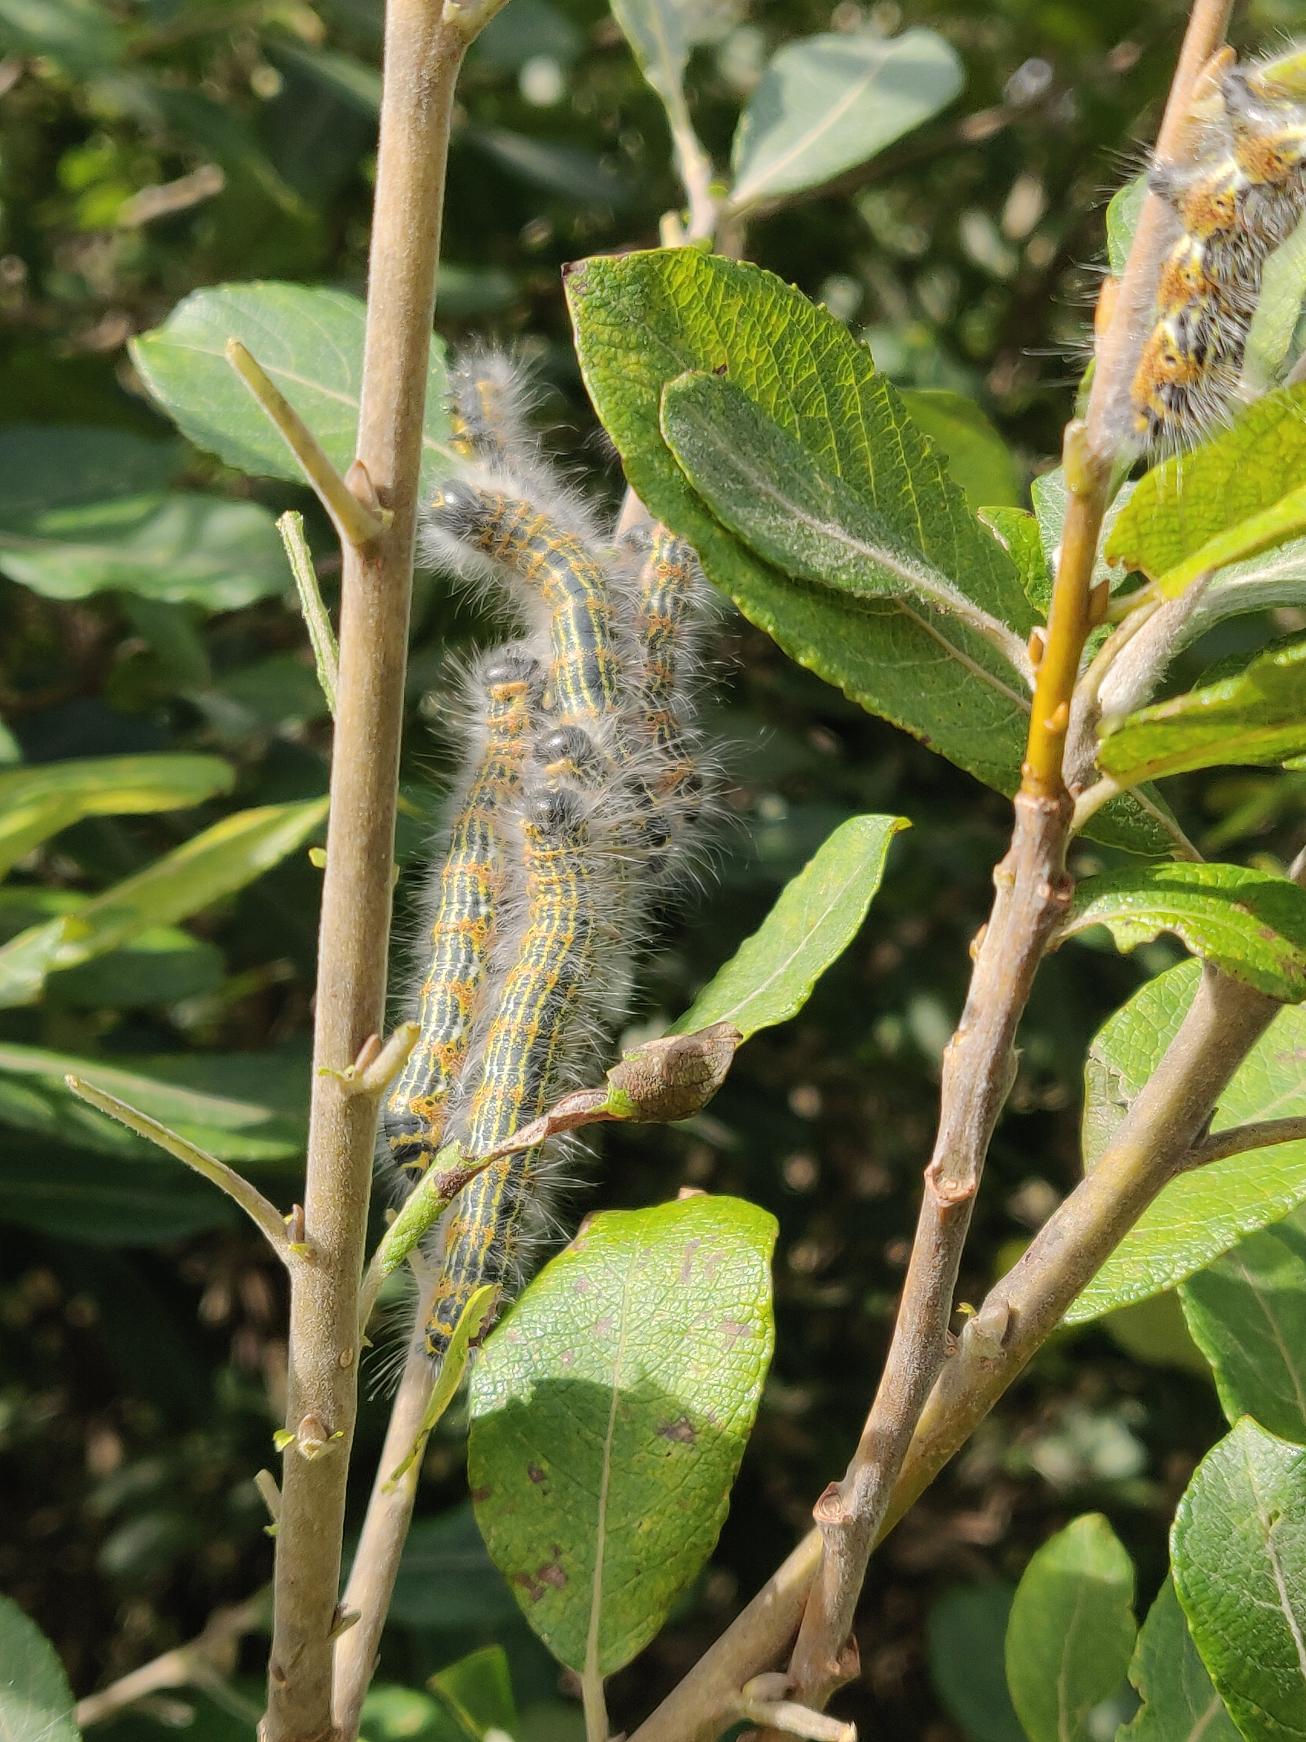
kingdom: Animalia
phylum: Arthropoda
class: Insecta
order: Lepidoptera
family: Notodontidae
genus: Phalera
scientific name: Phalera bucephala
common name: Måneplet
